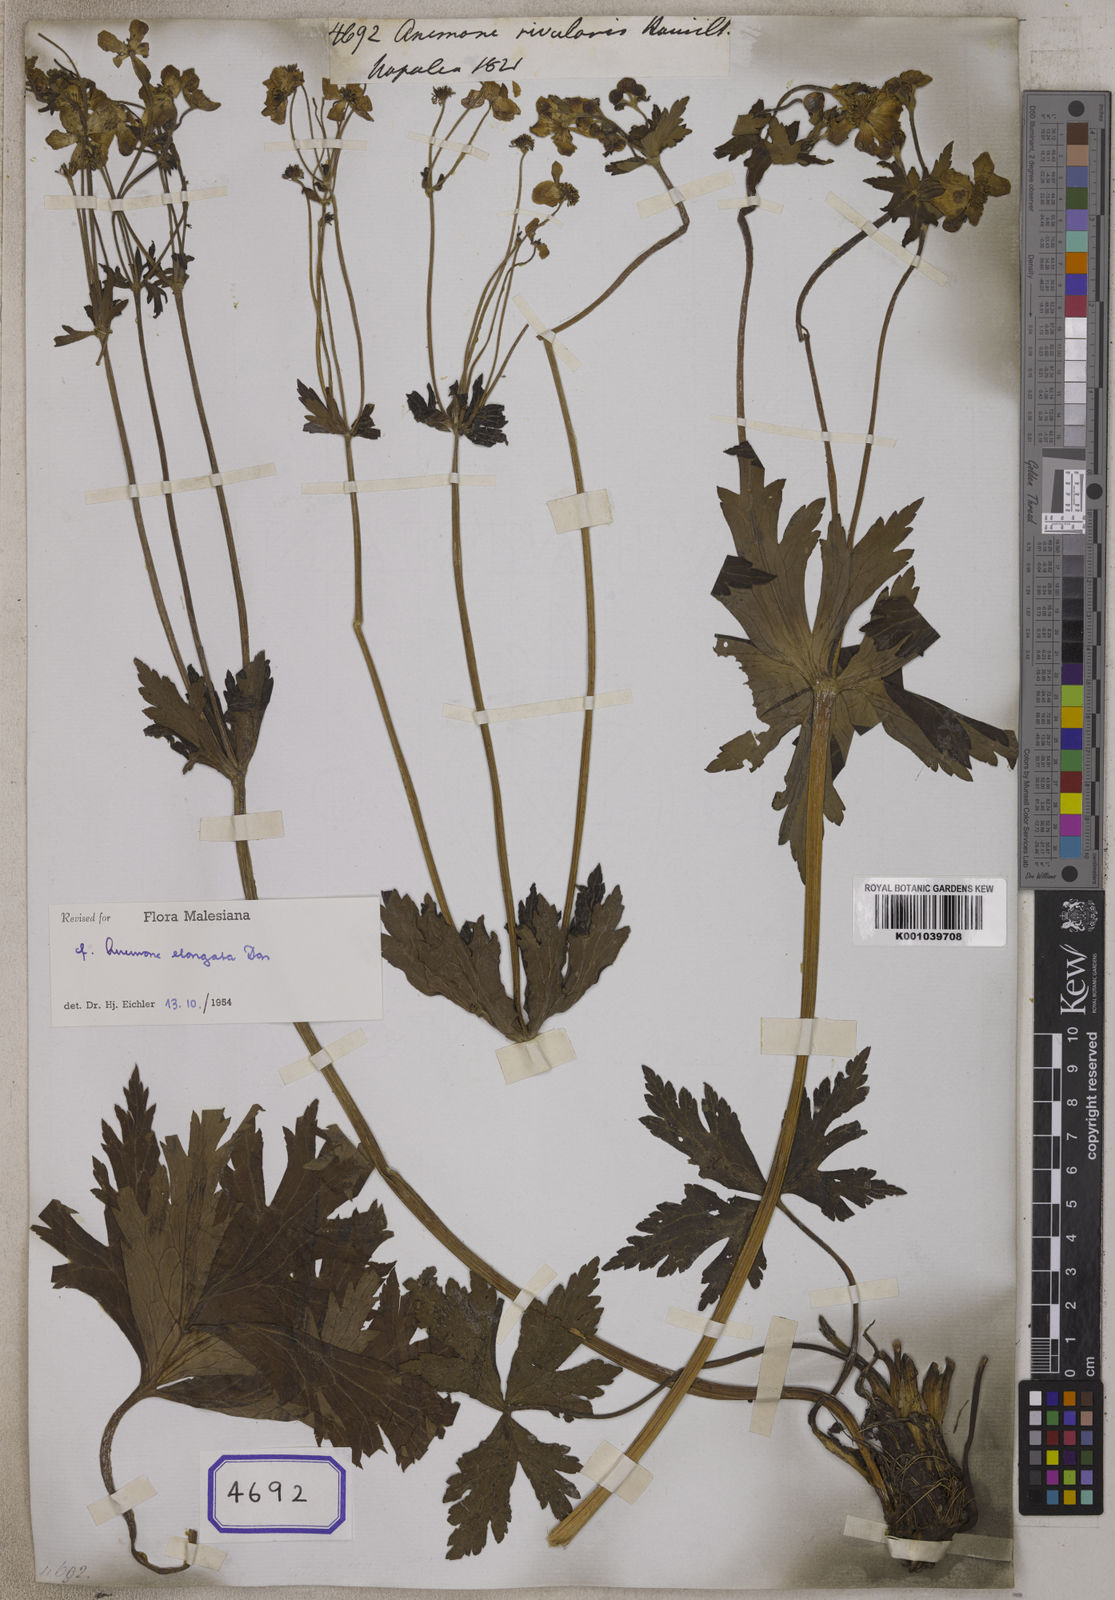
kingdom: Plantae
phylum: Tracheophyta
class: Magnoliopsida
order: Ranunculales
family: Ranunculaceae
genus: Anemone
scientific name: Anemone
